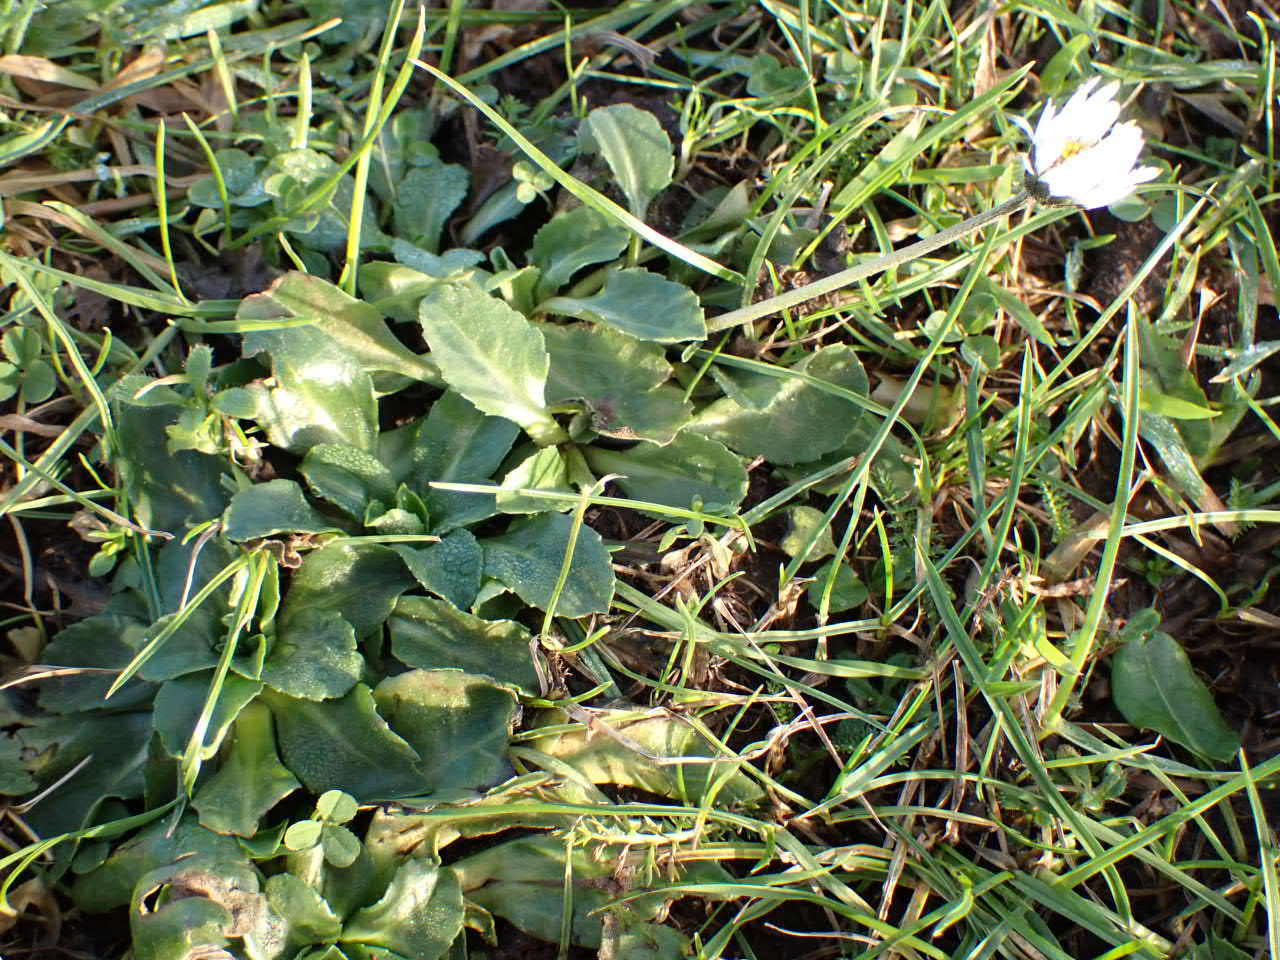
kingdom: Plantae
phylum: Tracheophyta
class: Magnoliopsida
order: Asterales
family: Asteraceae
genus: Bellis
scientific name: Bellis perennis
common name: Tusindfryd
